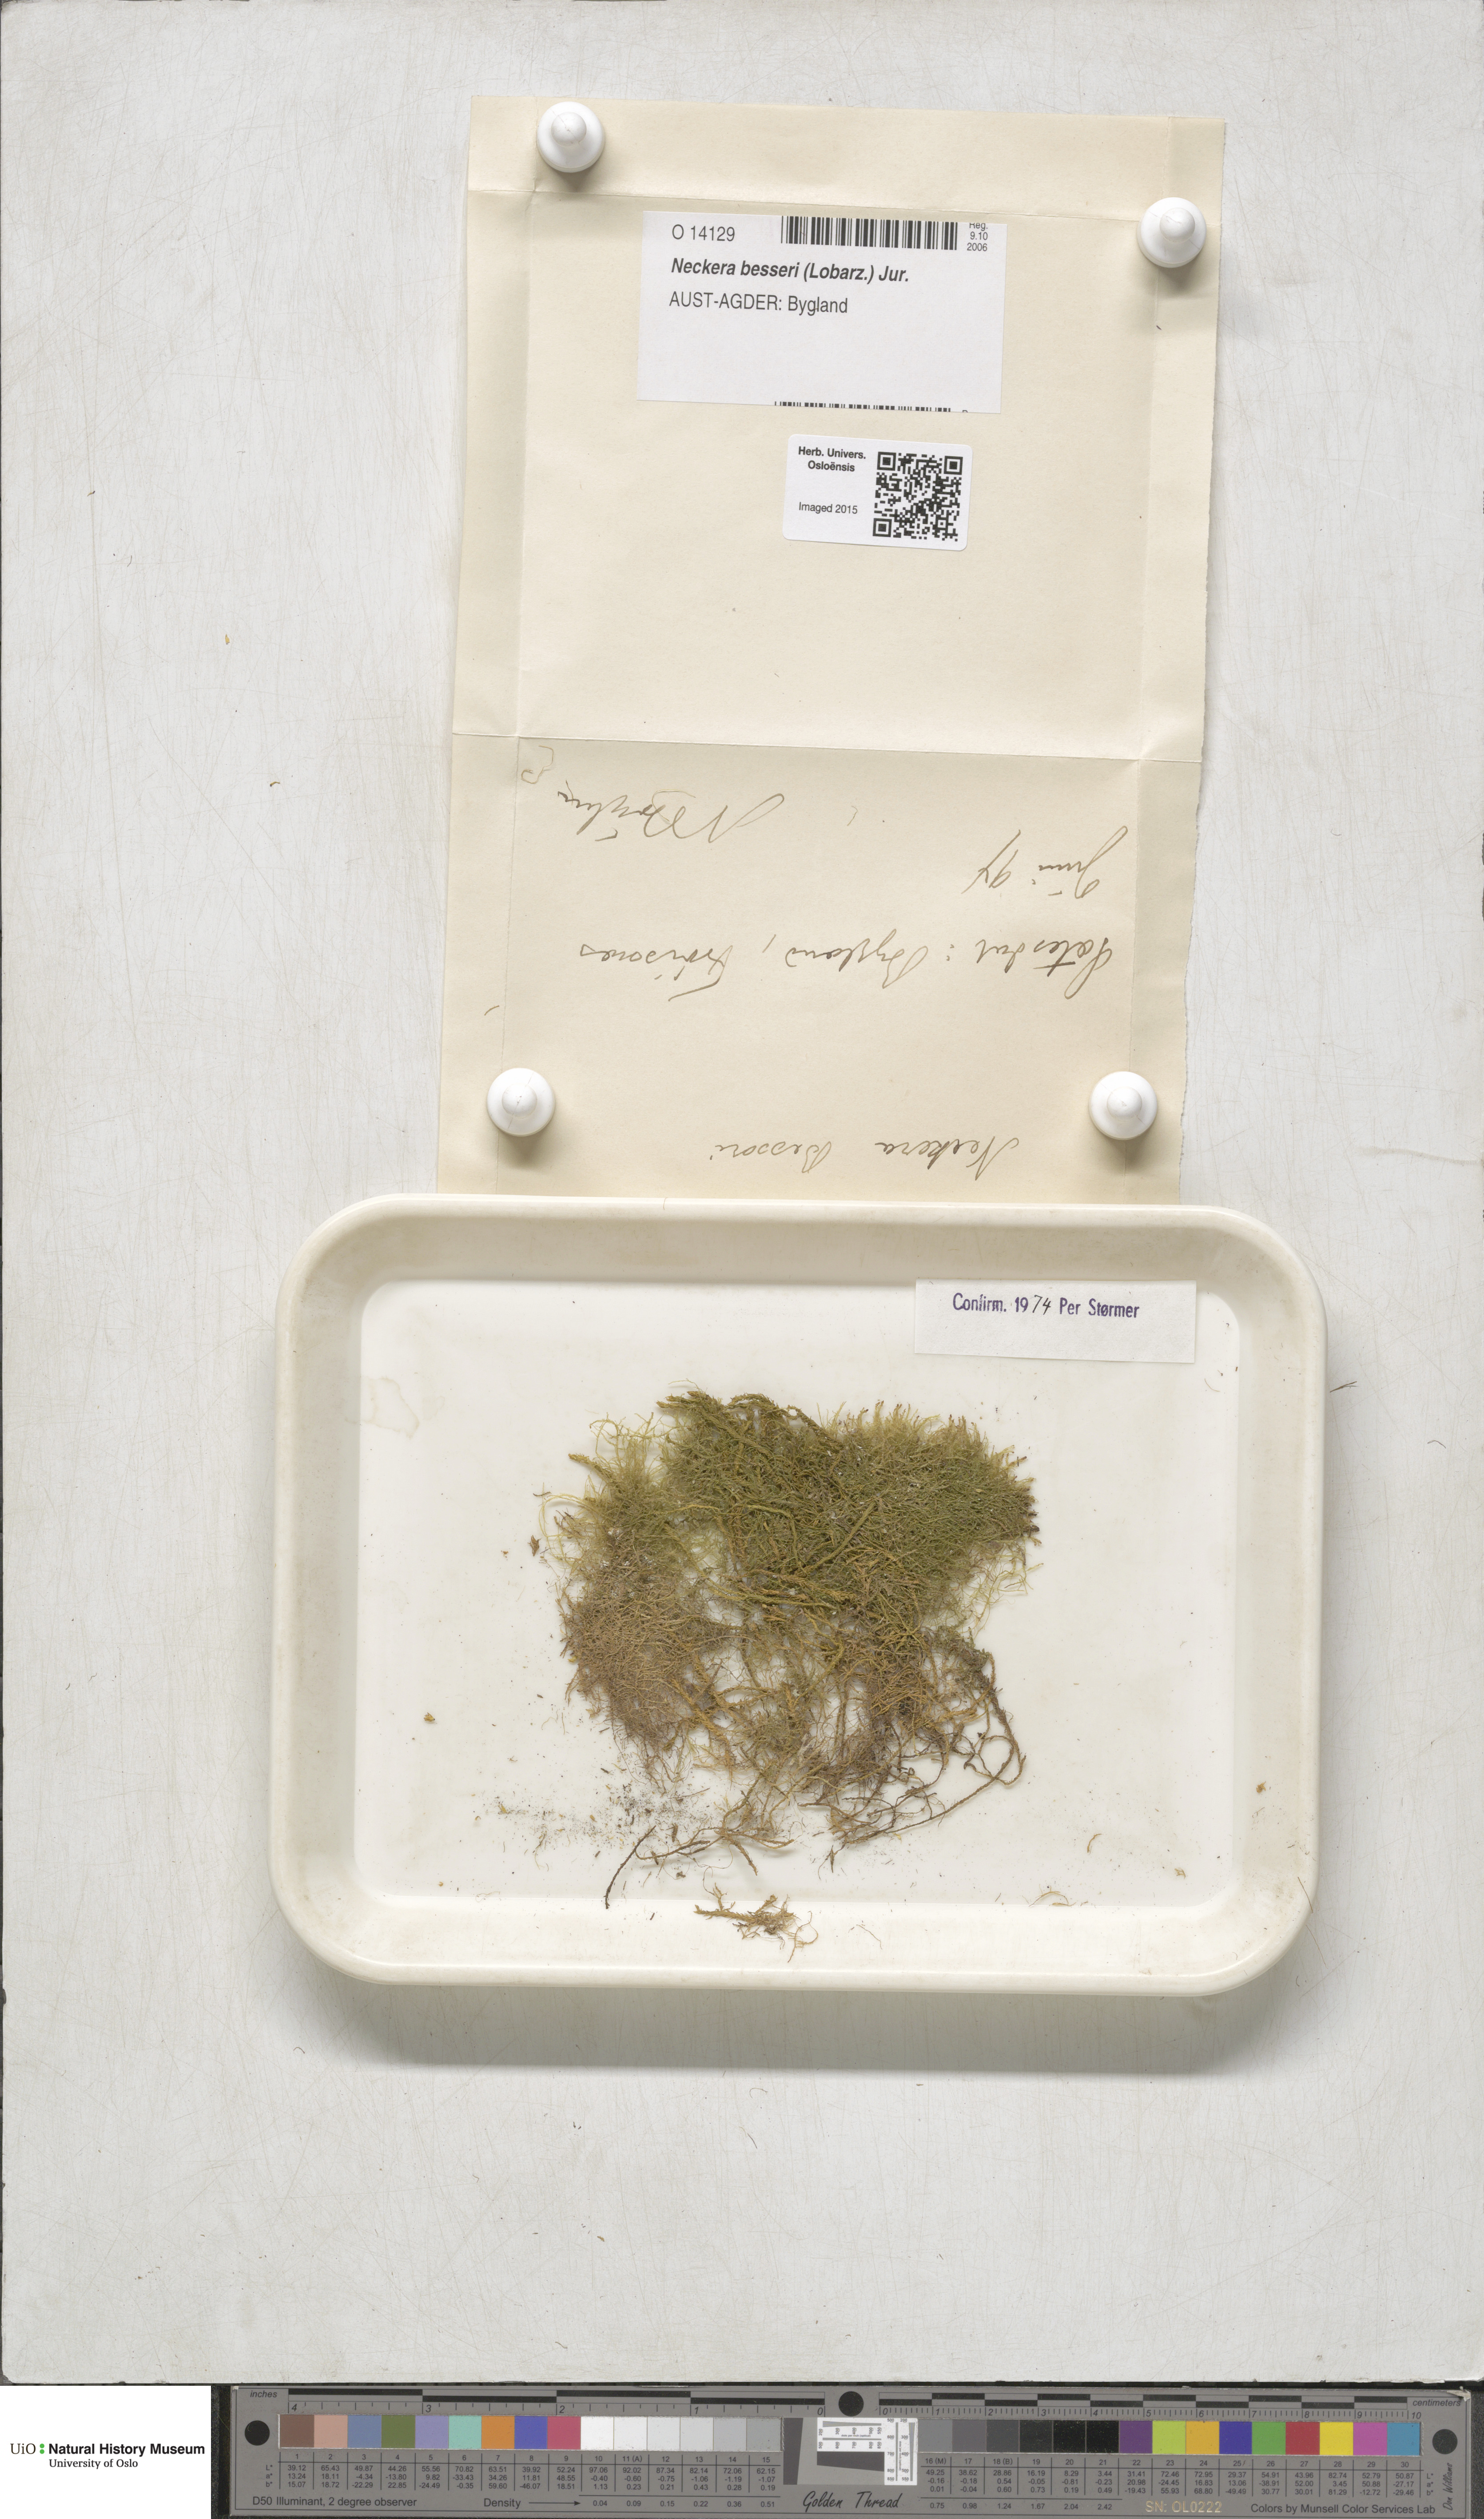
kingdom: Plantae
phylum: Bryophyta
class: Bryopsida
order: Hypnales
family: Neckeraceae
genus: Alleniella
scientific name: Alleniella besseri
